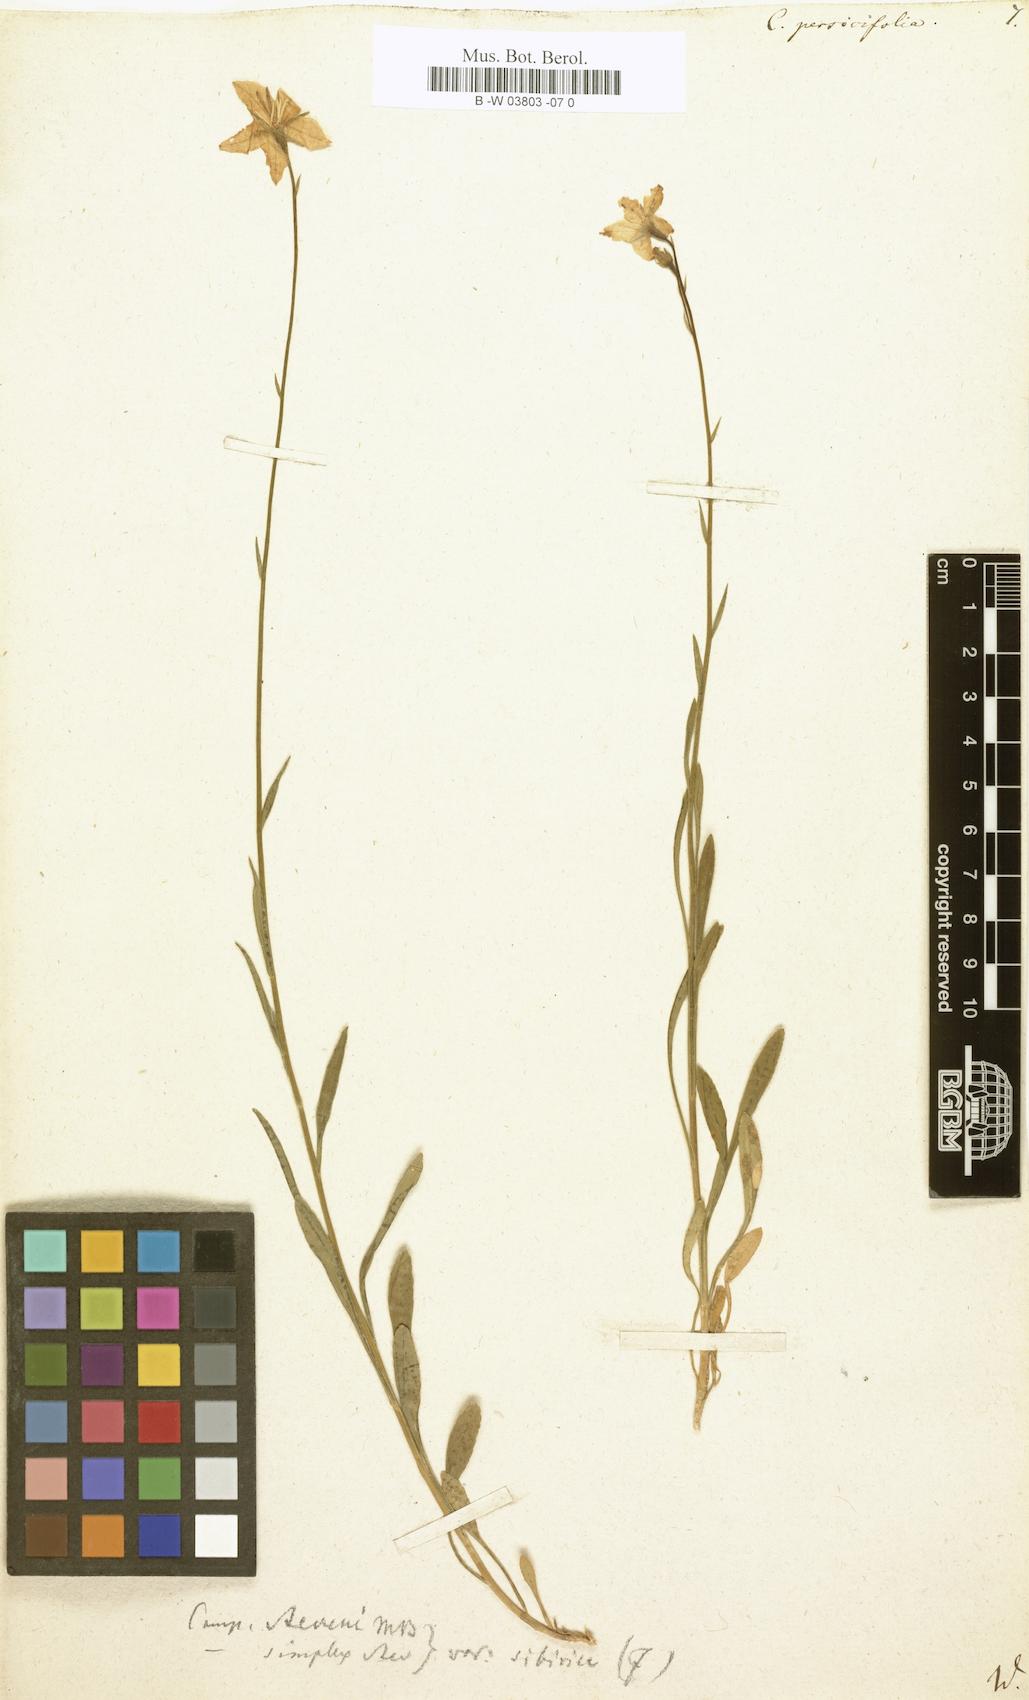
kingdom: Plantae
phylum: Tracheophyta
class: Magnoliopsida
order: Asterales
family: Campanulaceae
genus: Campanula
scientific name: Campanula persicifolia
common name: Peach-leaved bellflower
